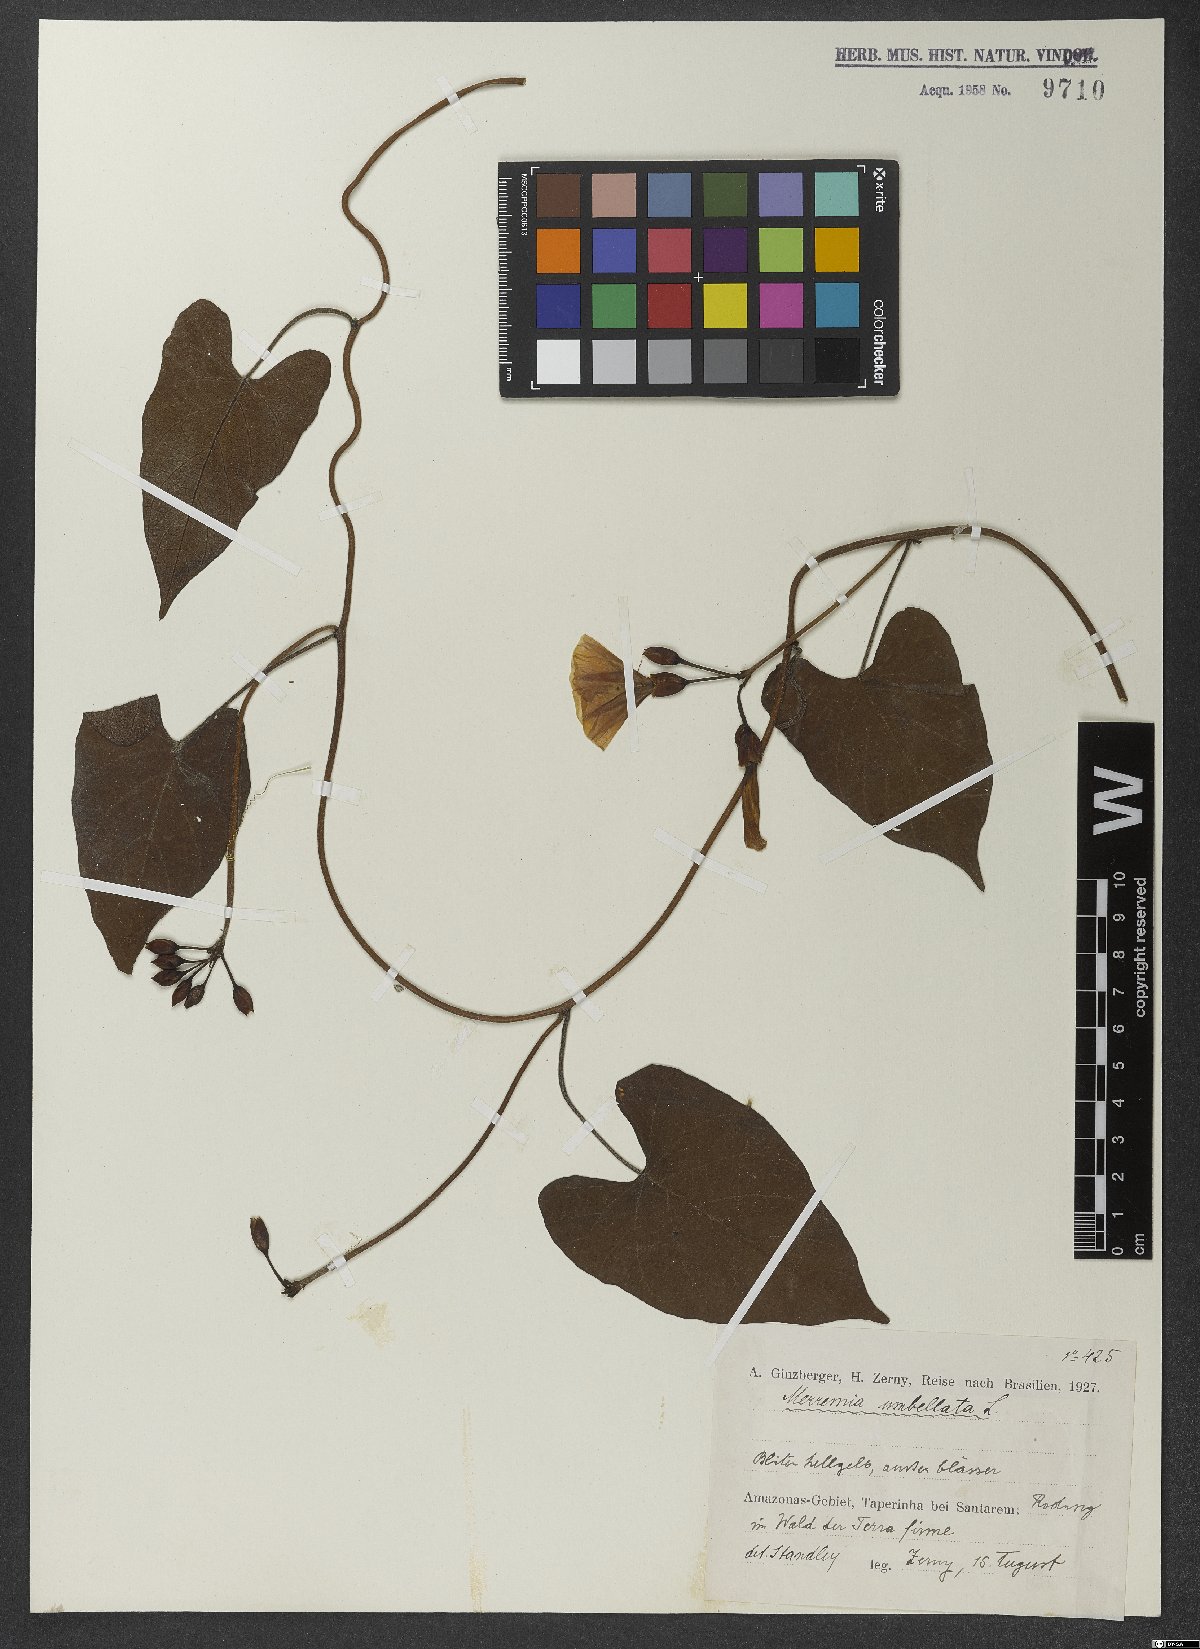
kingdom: Plantae
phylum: Tracheophyta
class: Magnoliopsida
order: Solanales
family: Convolvulaceae
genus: Camonea
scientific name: Camonea umbellata
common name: Hogvine
